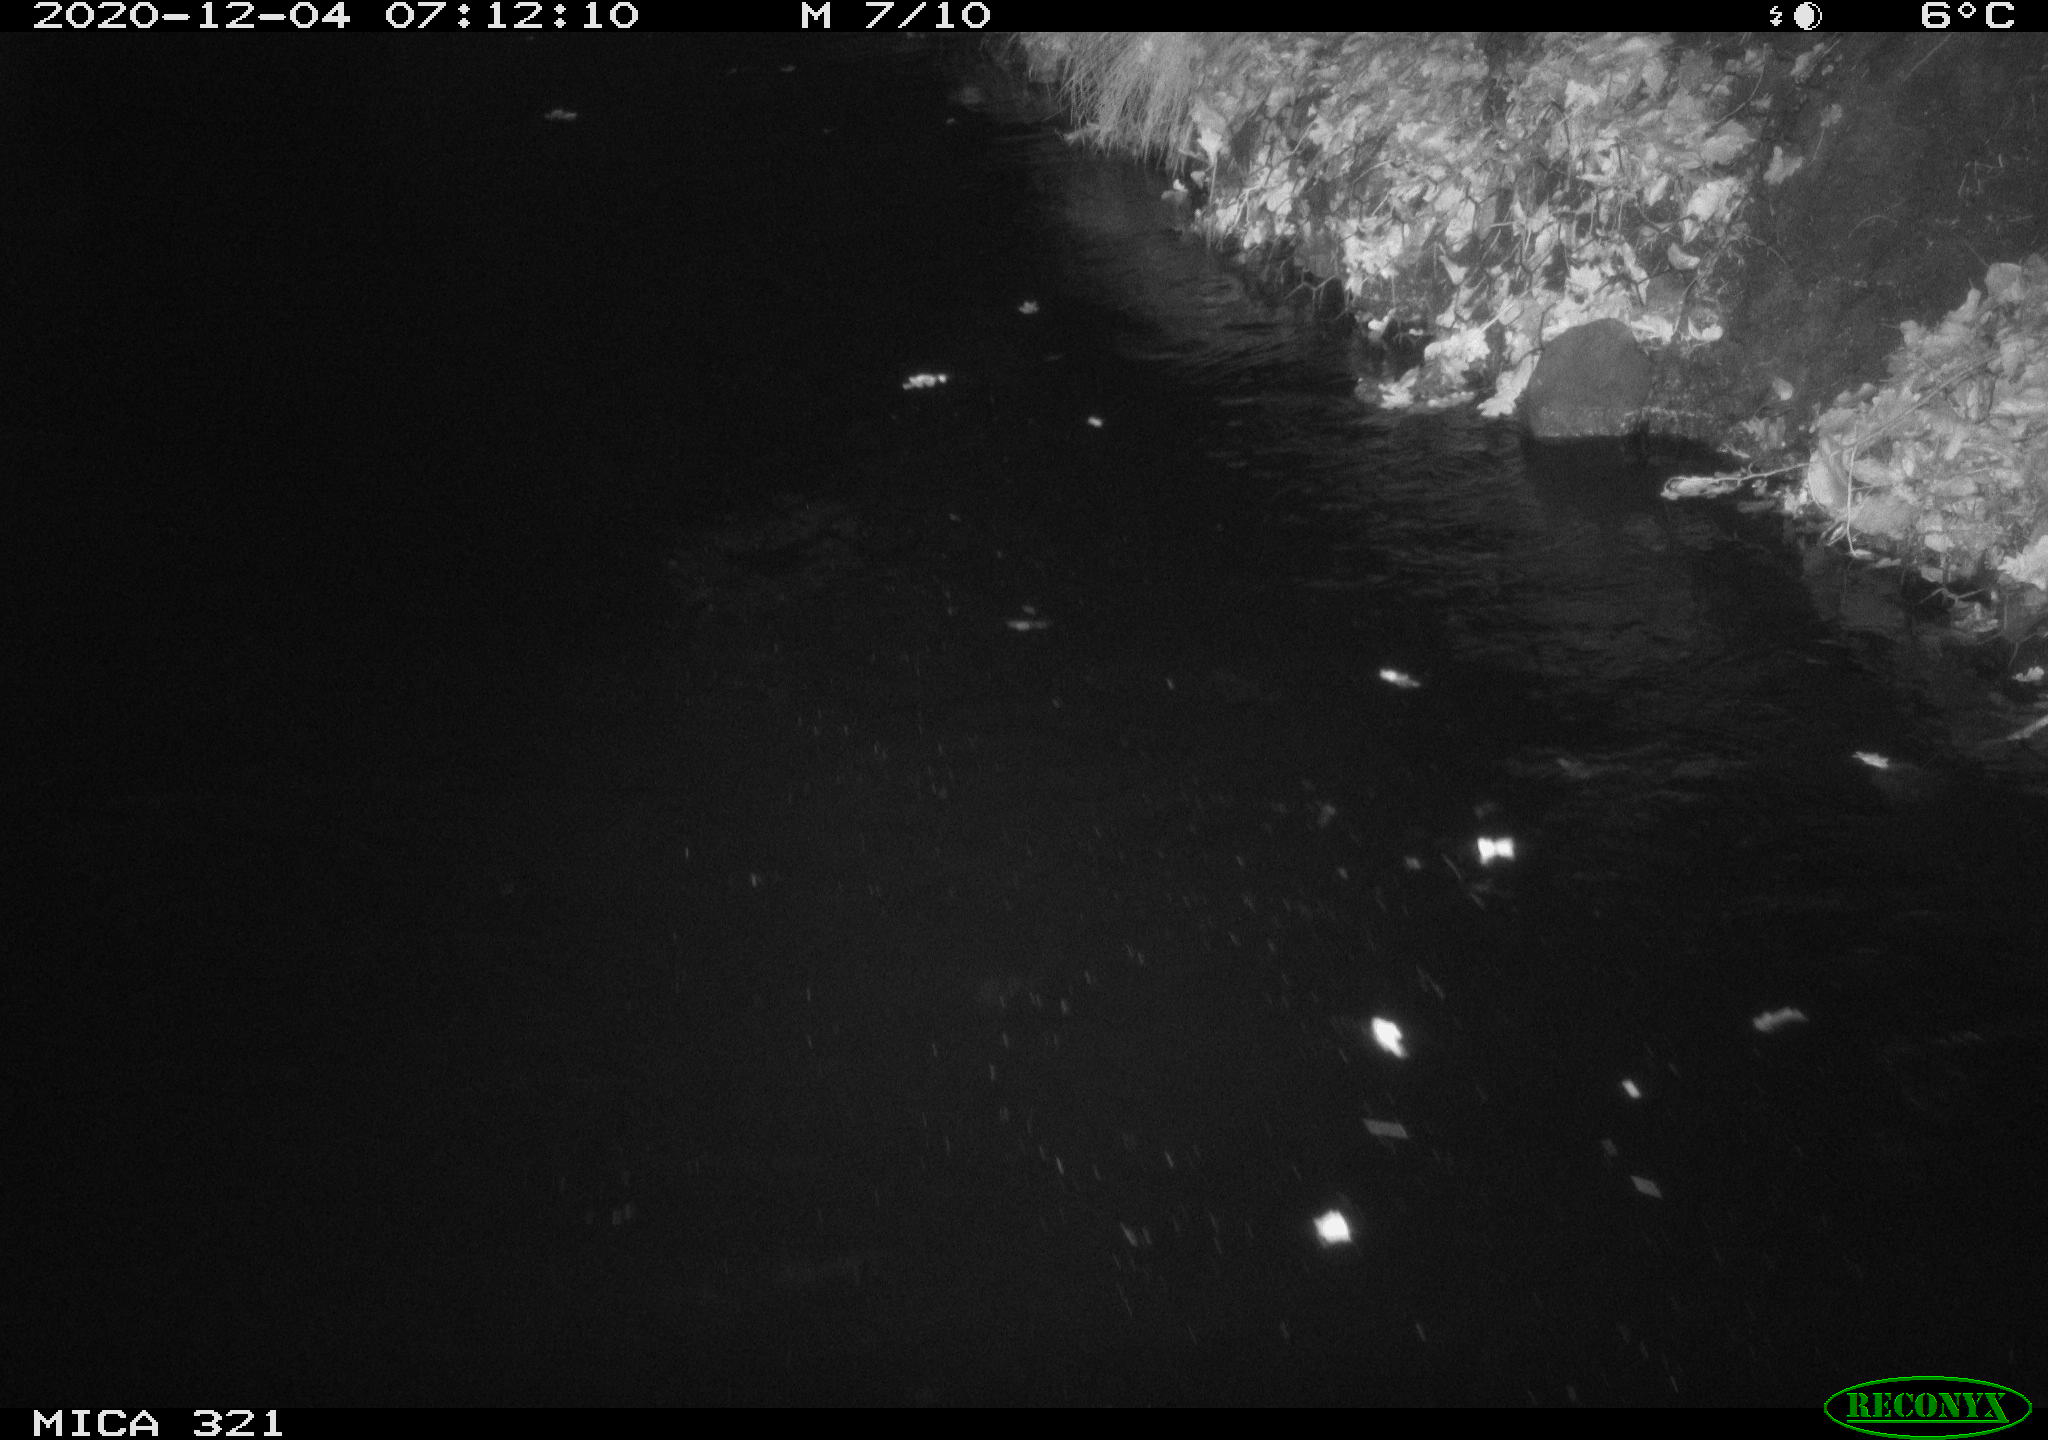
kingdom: Animalia
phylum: Chordata
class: Aves
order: Anseriformes
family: Anatidae
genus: Anas
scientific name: Anas platyrhynchos
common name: Mallard
